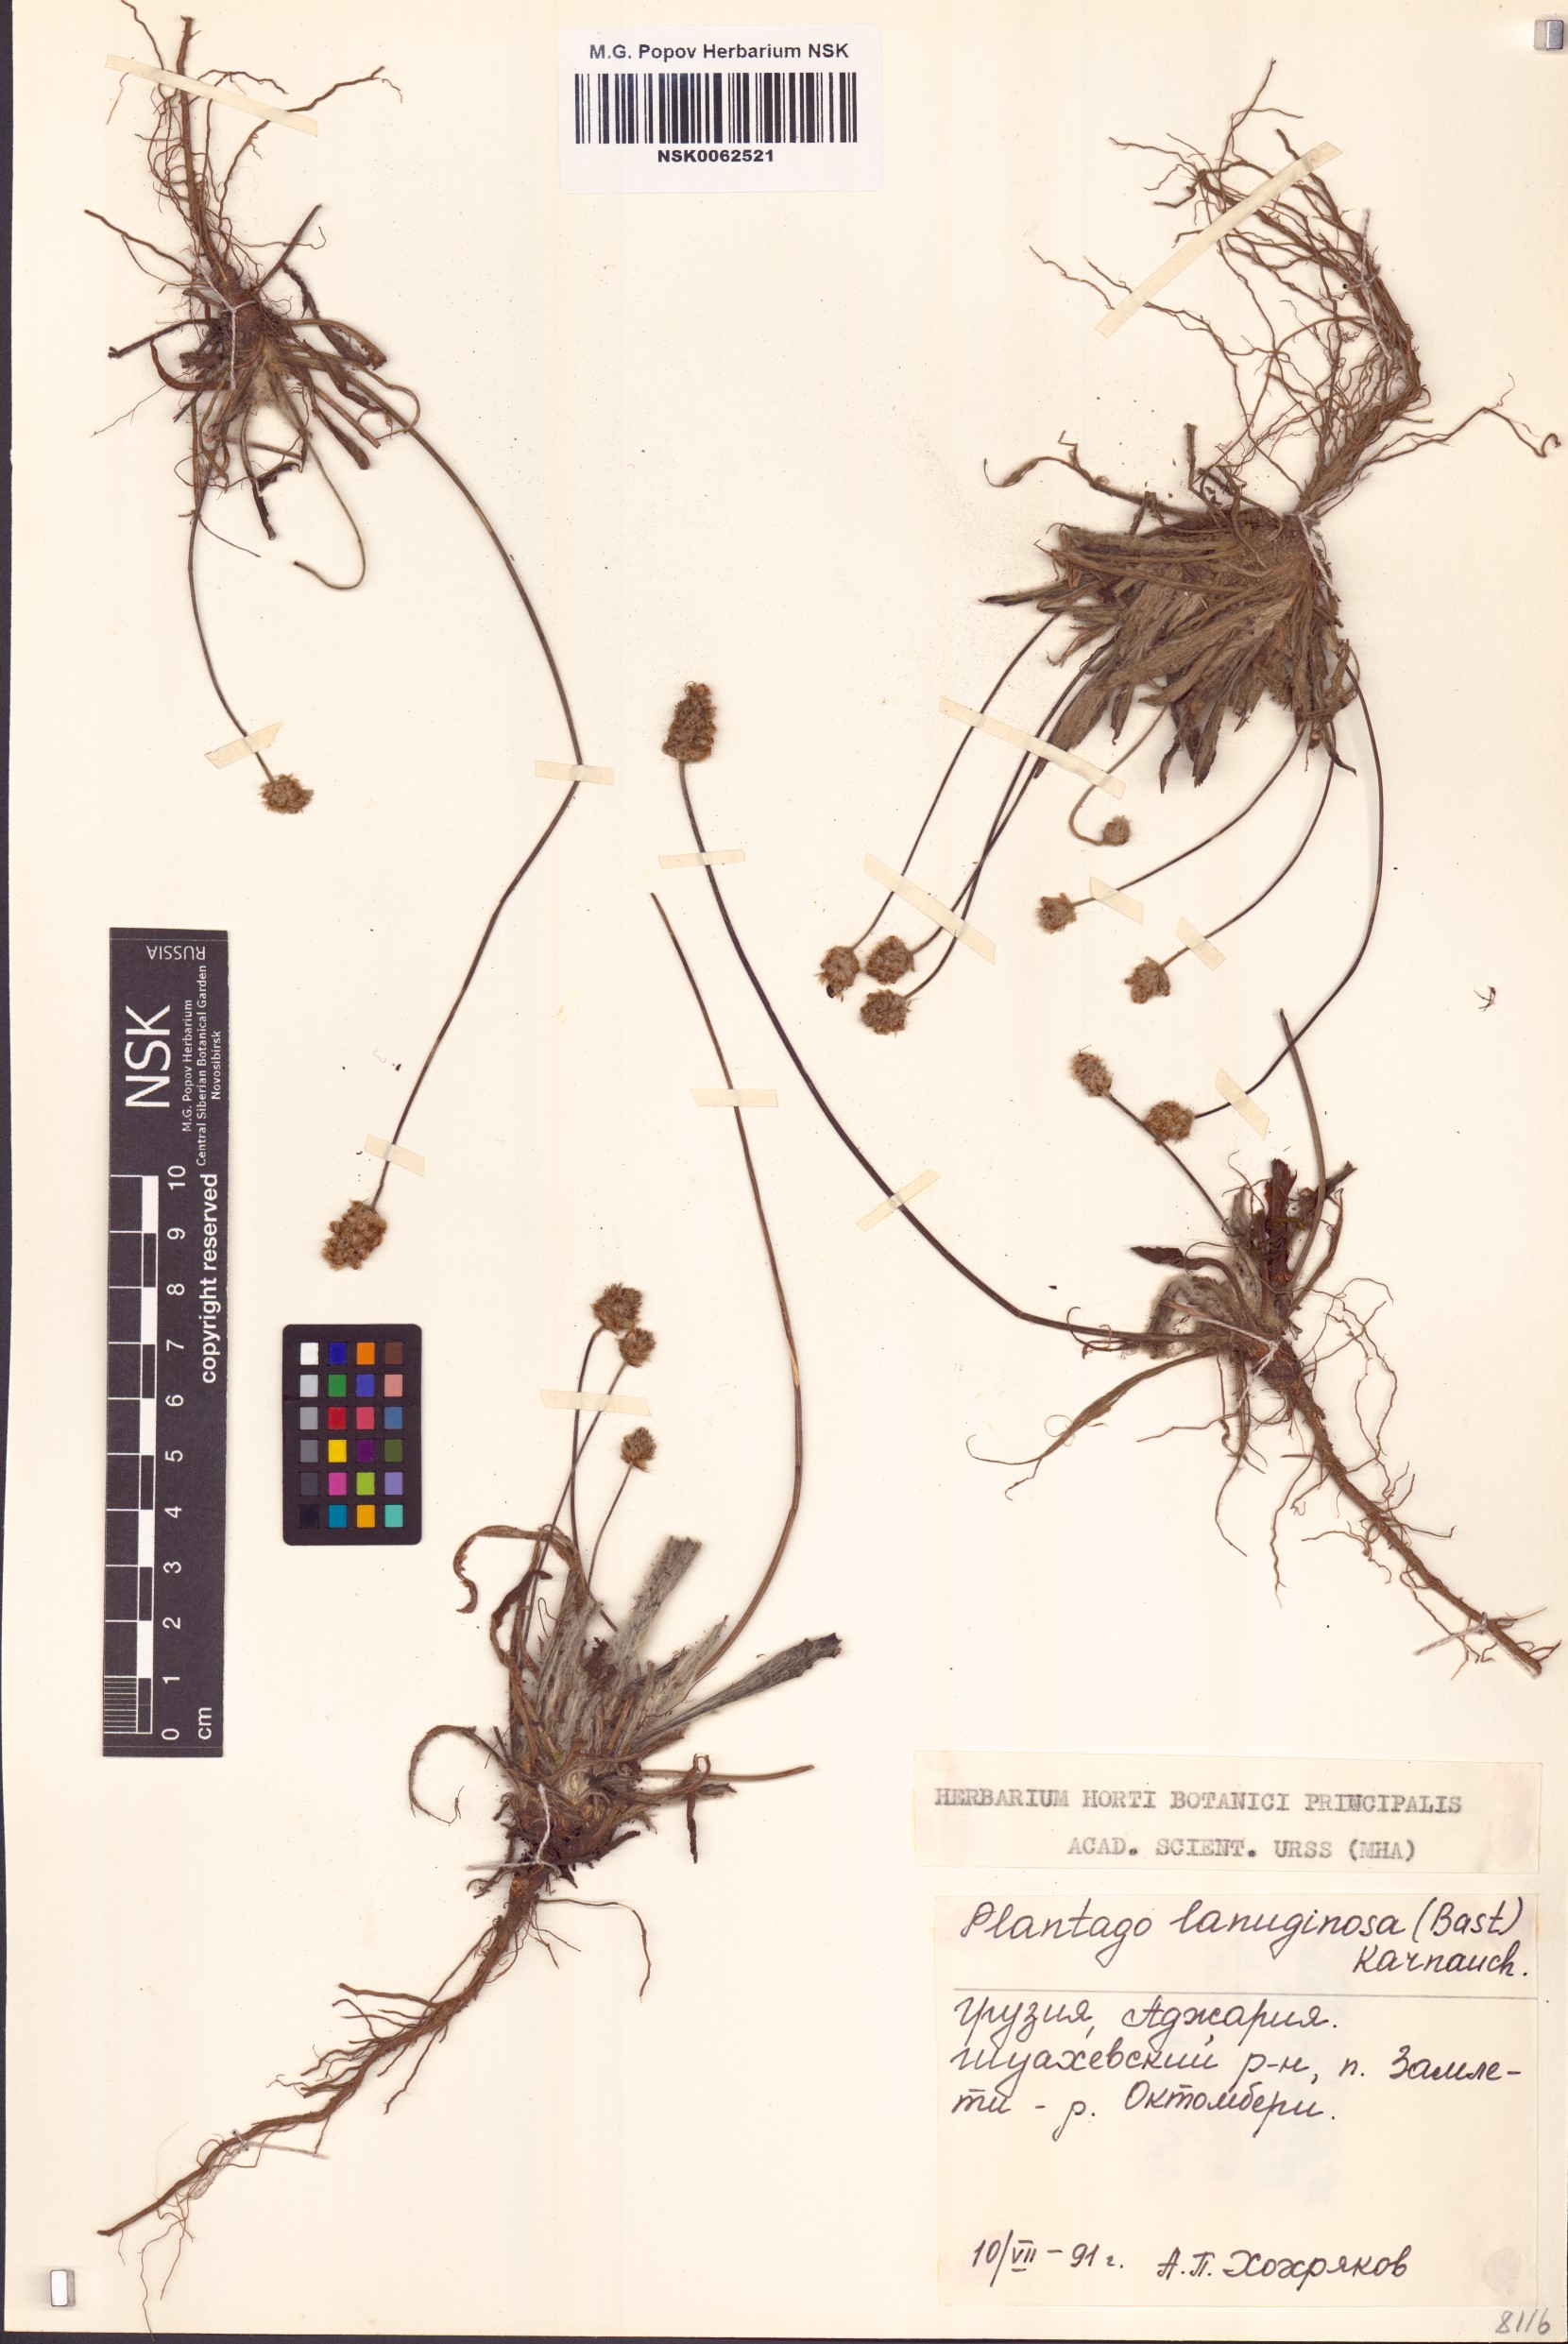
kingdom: Plantae
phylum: Tracheophyta
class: Magnoliopsida
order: Lamiales
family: Plantaginaceae
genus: Plantago
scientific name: Plantago lanceolata
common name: Ribwort plantain
